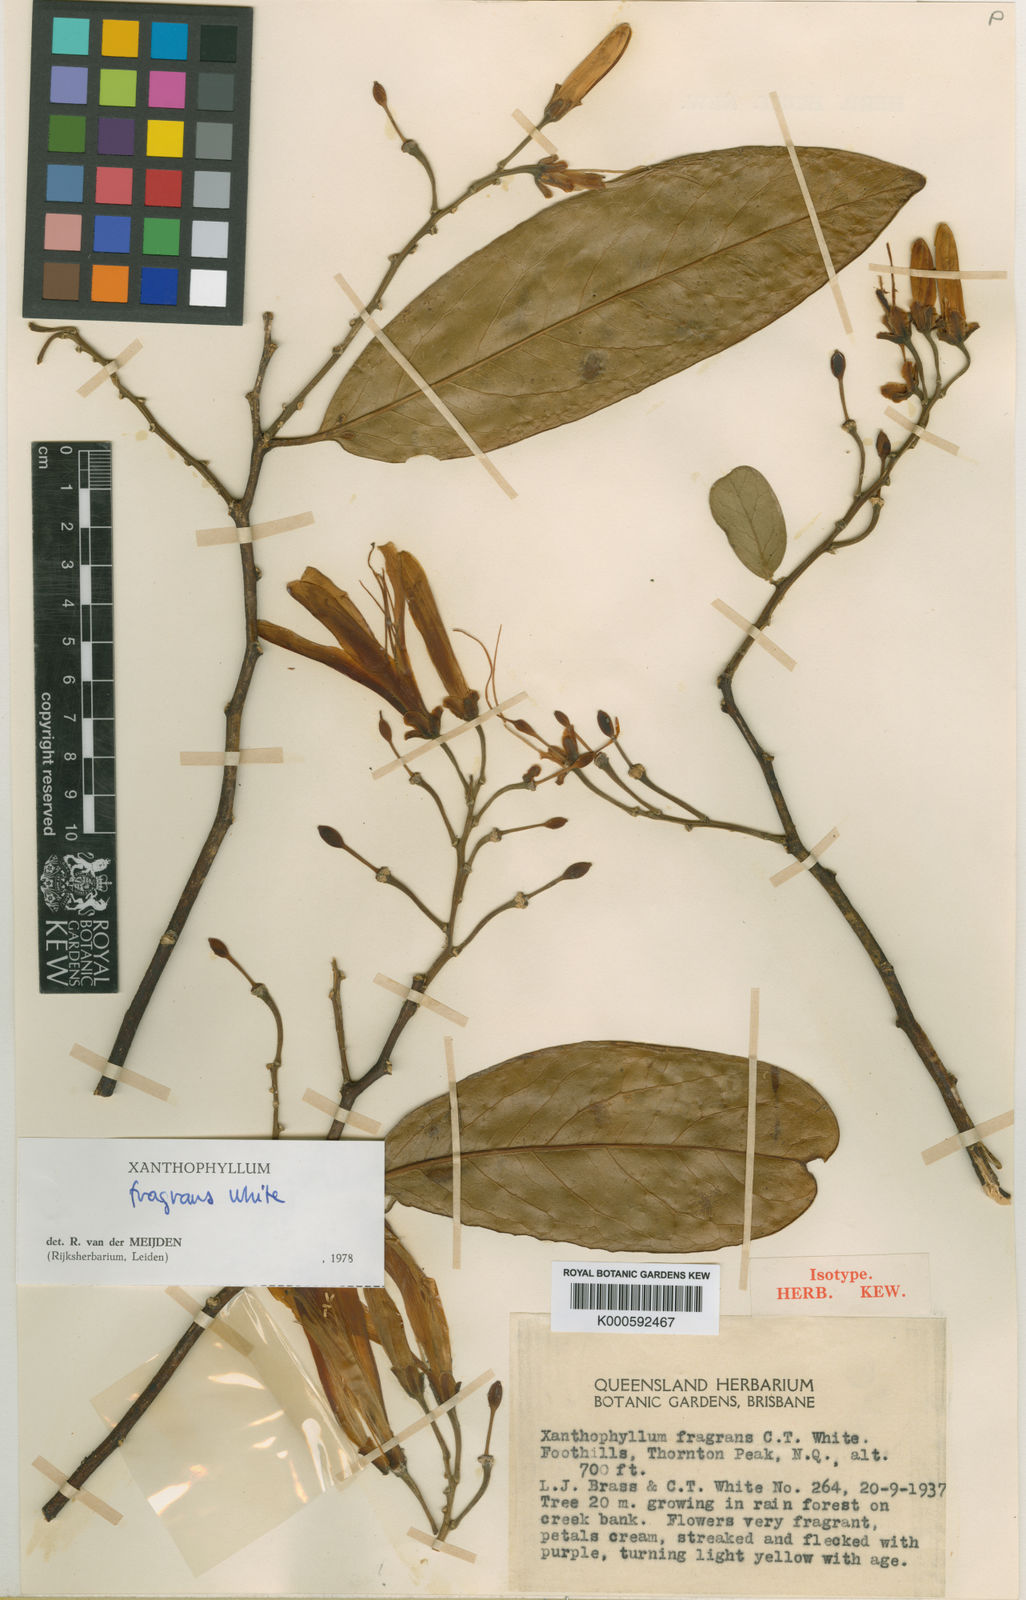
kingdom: Plantae
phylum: Tracheophyta
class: Magnoliopsida
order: Fabales
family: Polygalaceae
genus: Xanthophyllum
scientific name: Xanthophyllum fragrans
